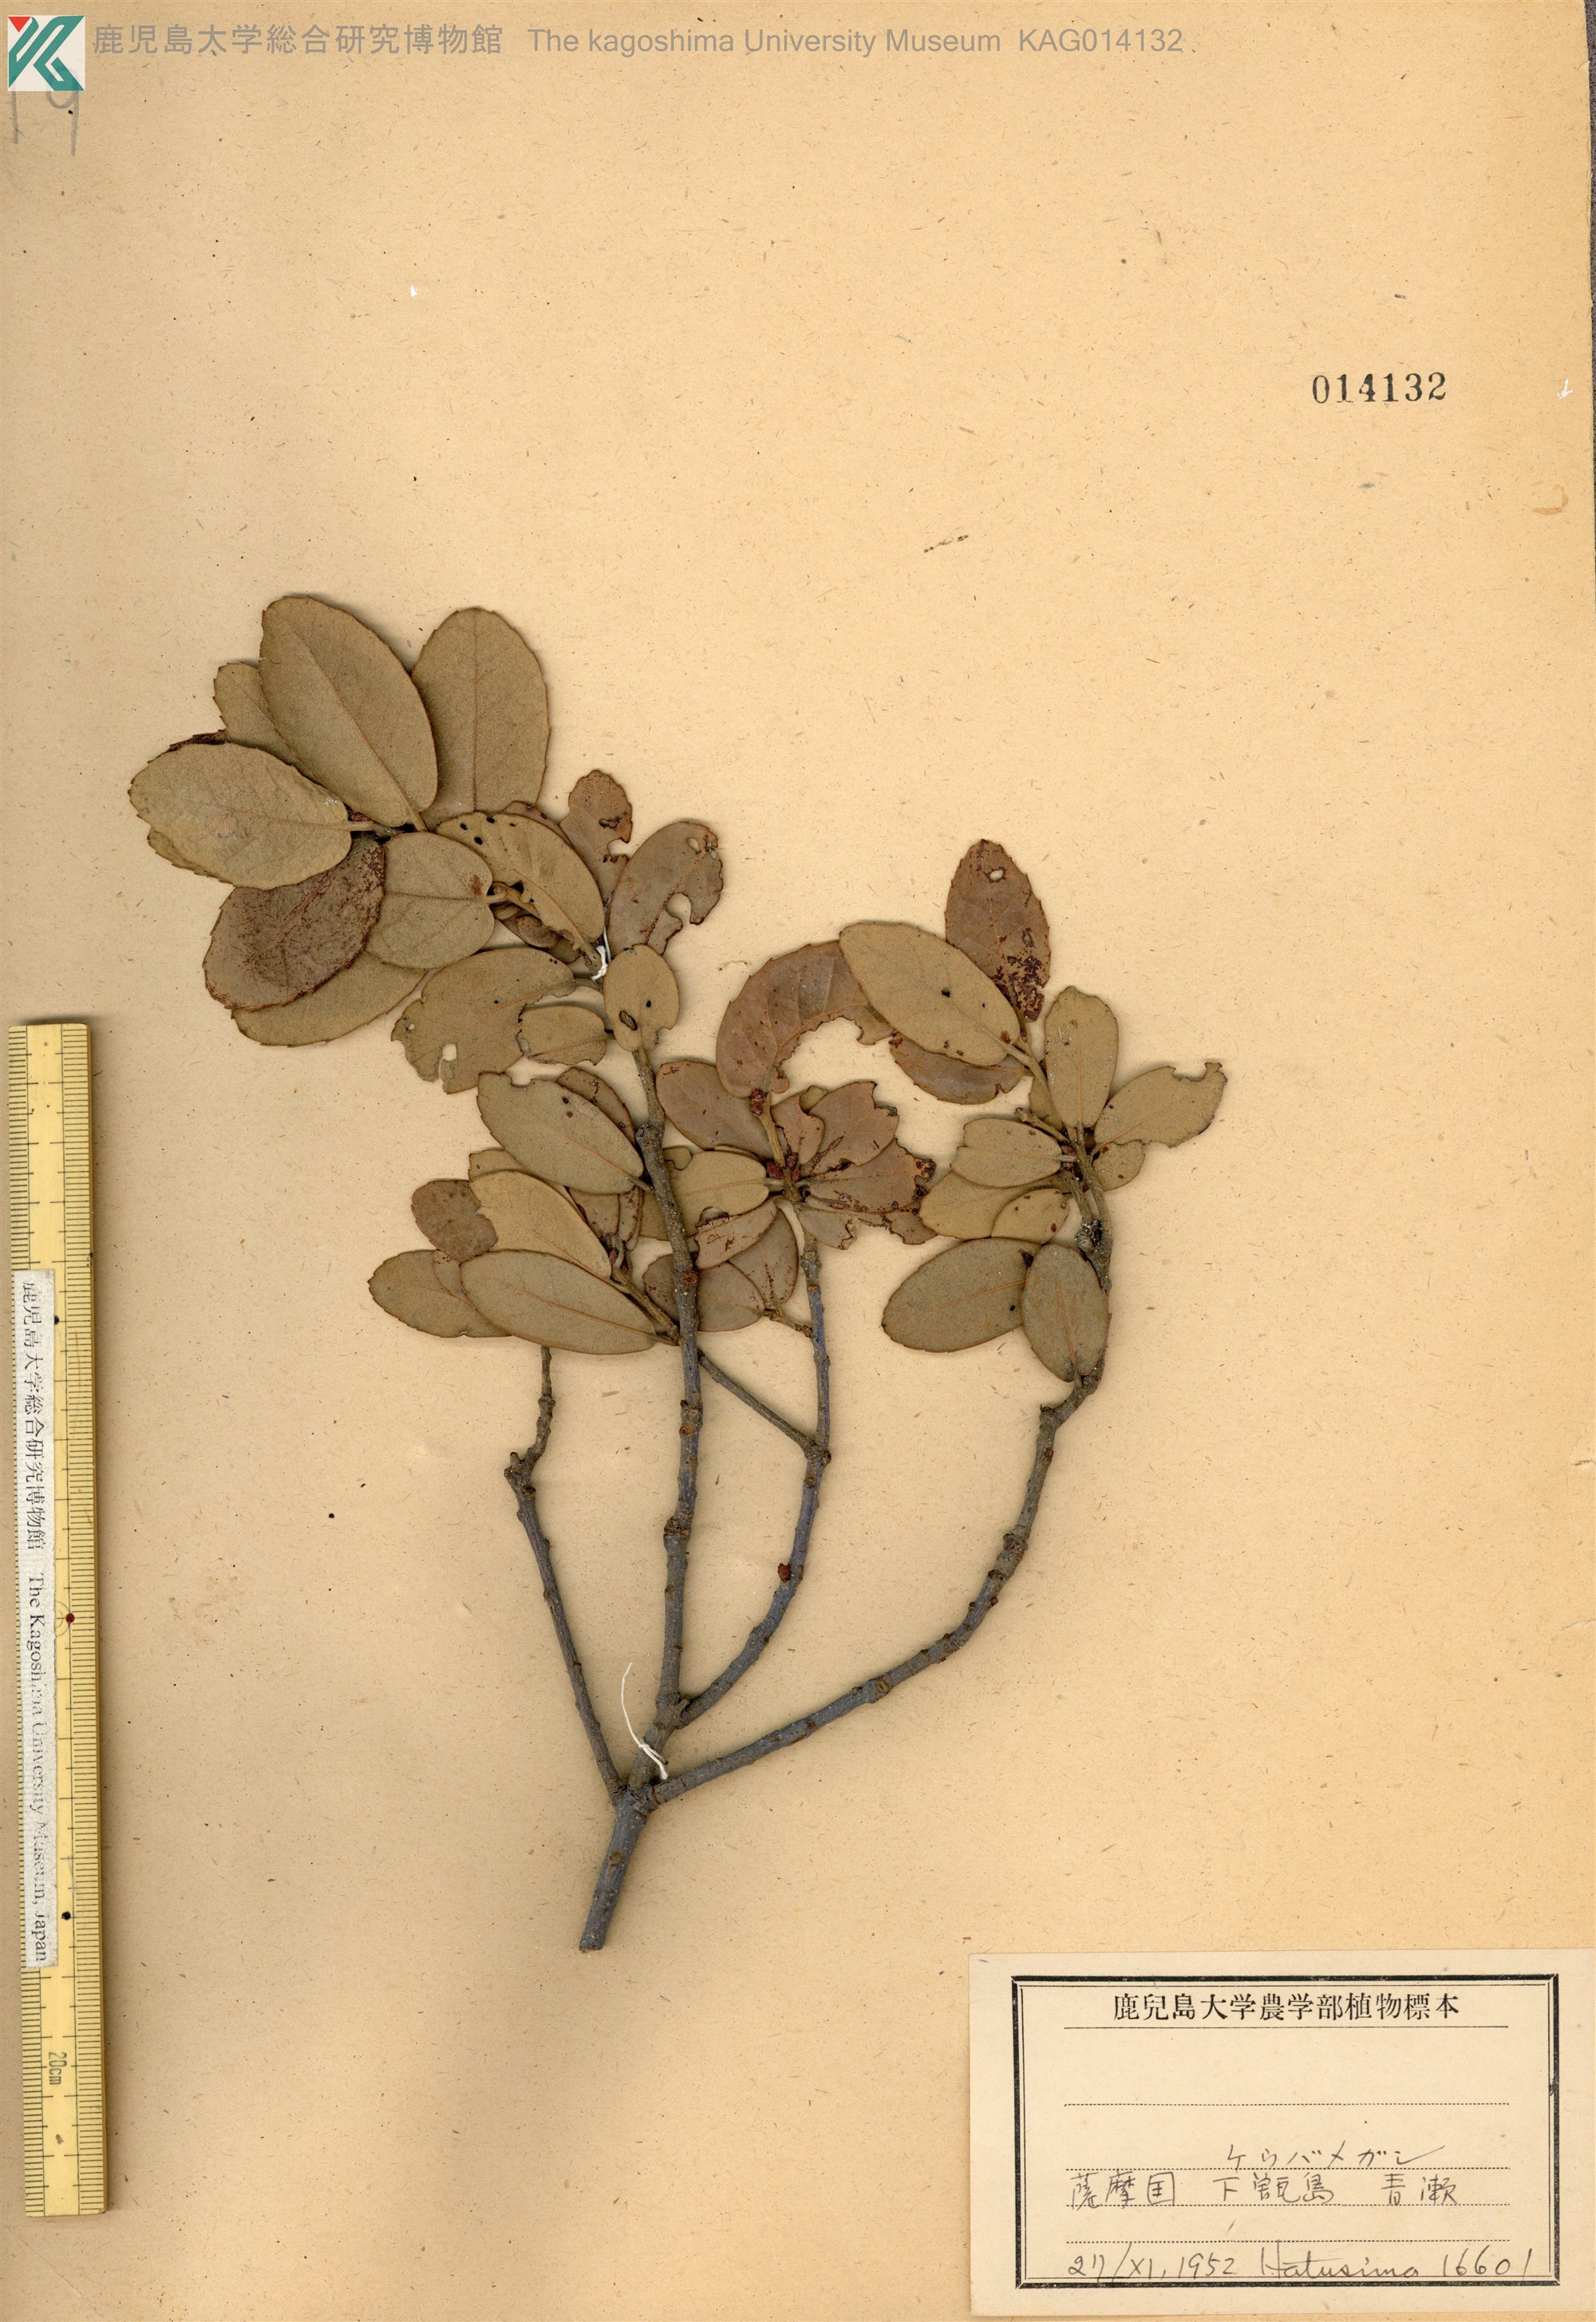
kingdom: Plantae
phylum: Tracheophyta
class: Magnoliopsida
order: Fagales
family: Fagaceae
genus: Quercus
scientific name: Quercus phillyreoides
